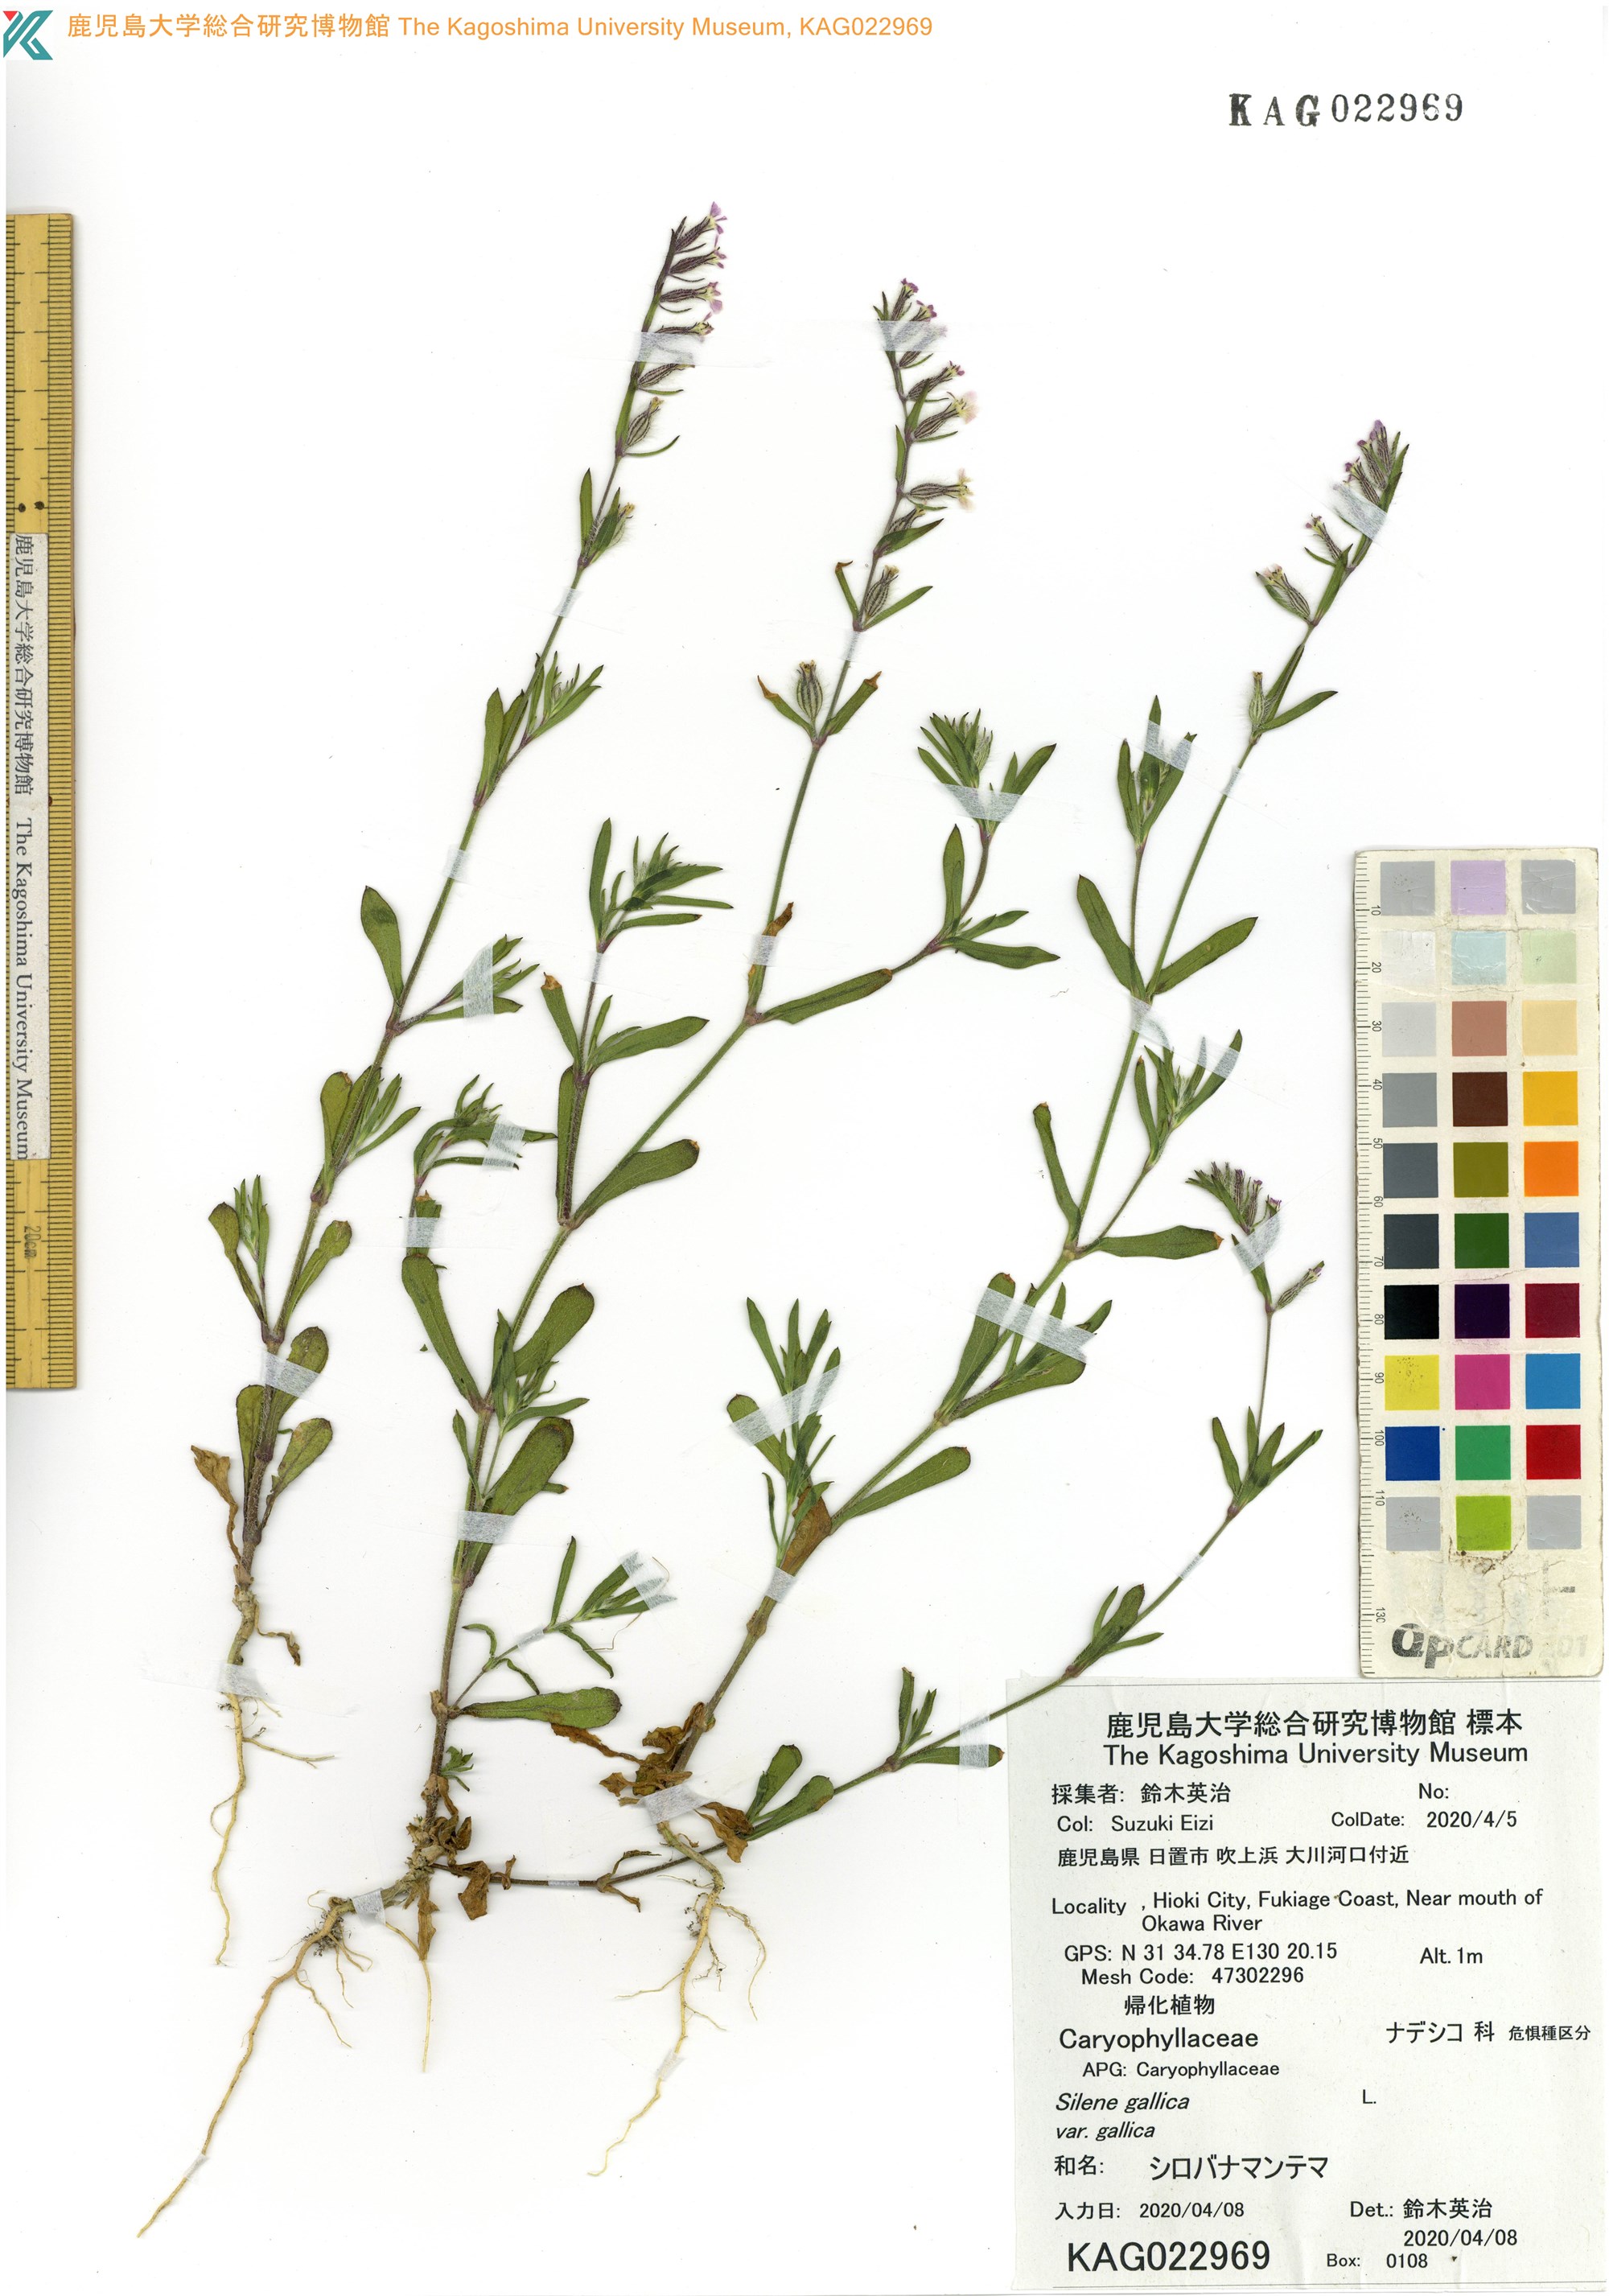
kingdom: Plantae
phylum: Tracheophyta
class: Magnoliopsida
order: Caryophyllales
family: Caryophyllaceae
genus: Silene
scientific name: Silene gallica
